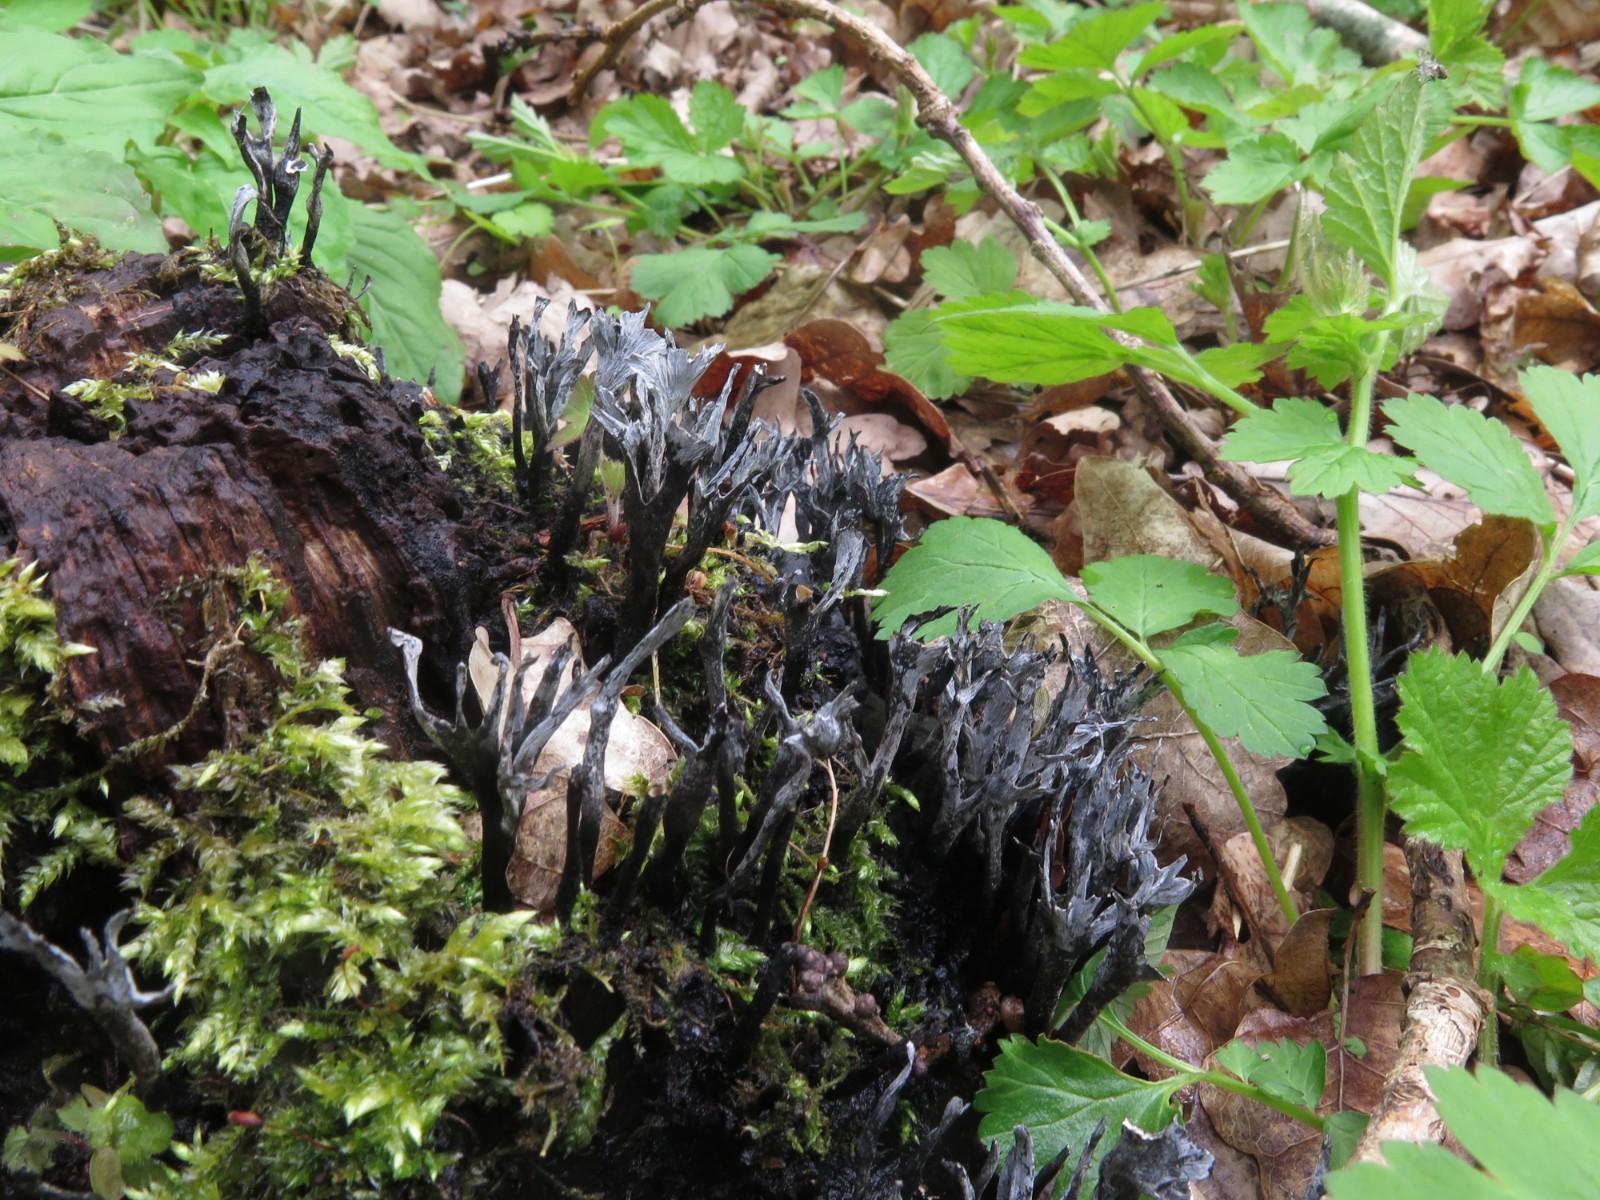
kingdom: Fungi
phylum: Ascomycota
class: Sordariomycetes
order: Xylariales
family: Xylariaceae
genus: Xylaria
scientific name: Xylaria hypoxylon
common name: grenet stødsvamp
